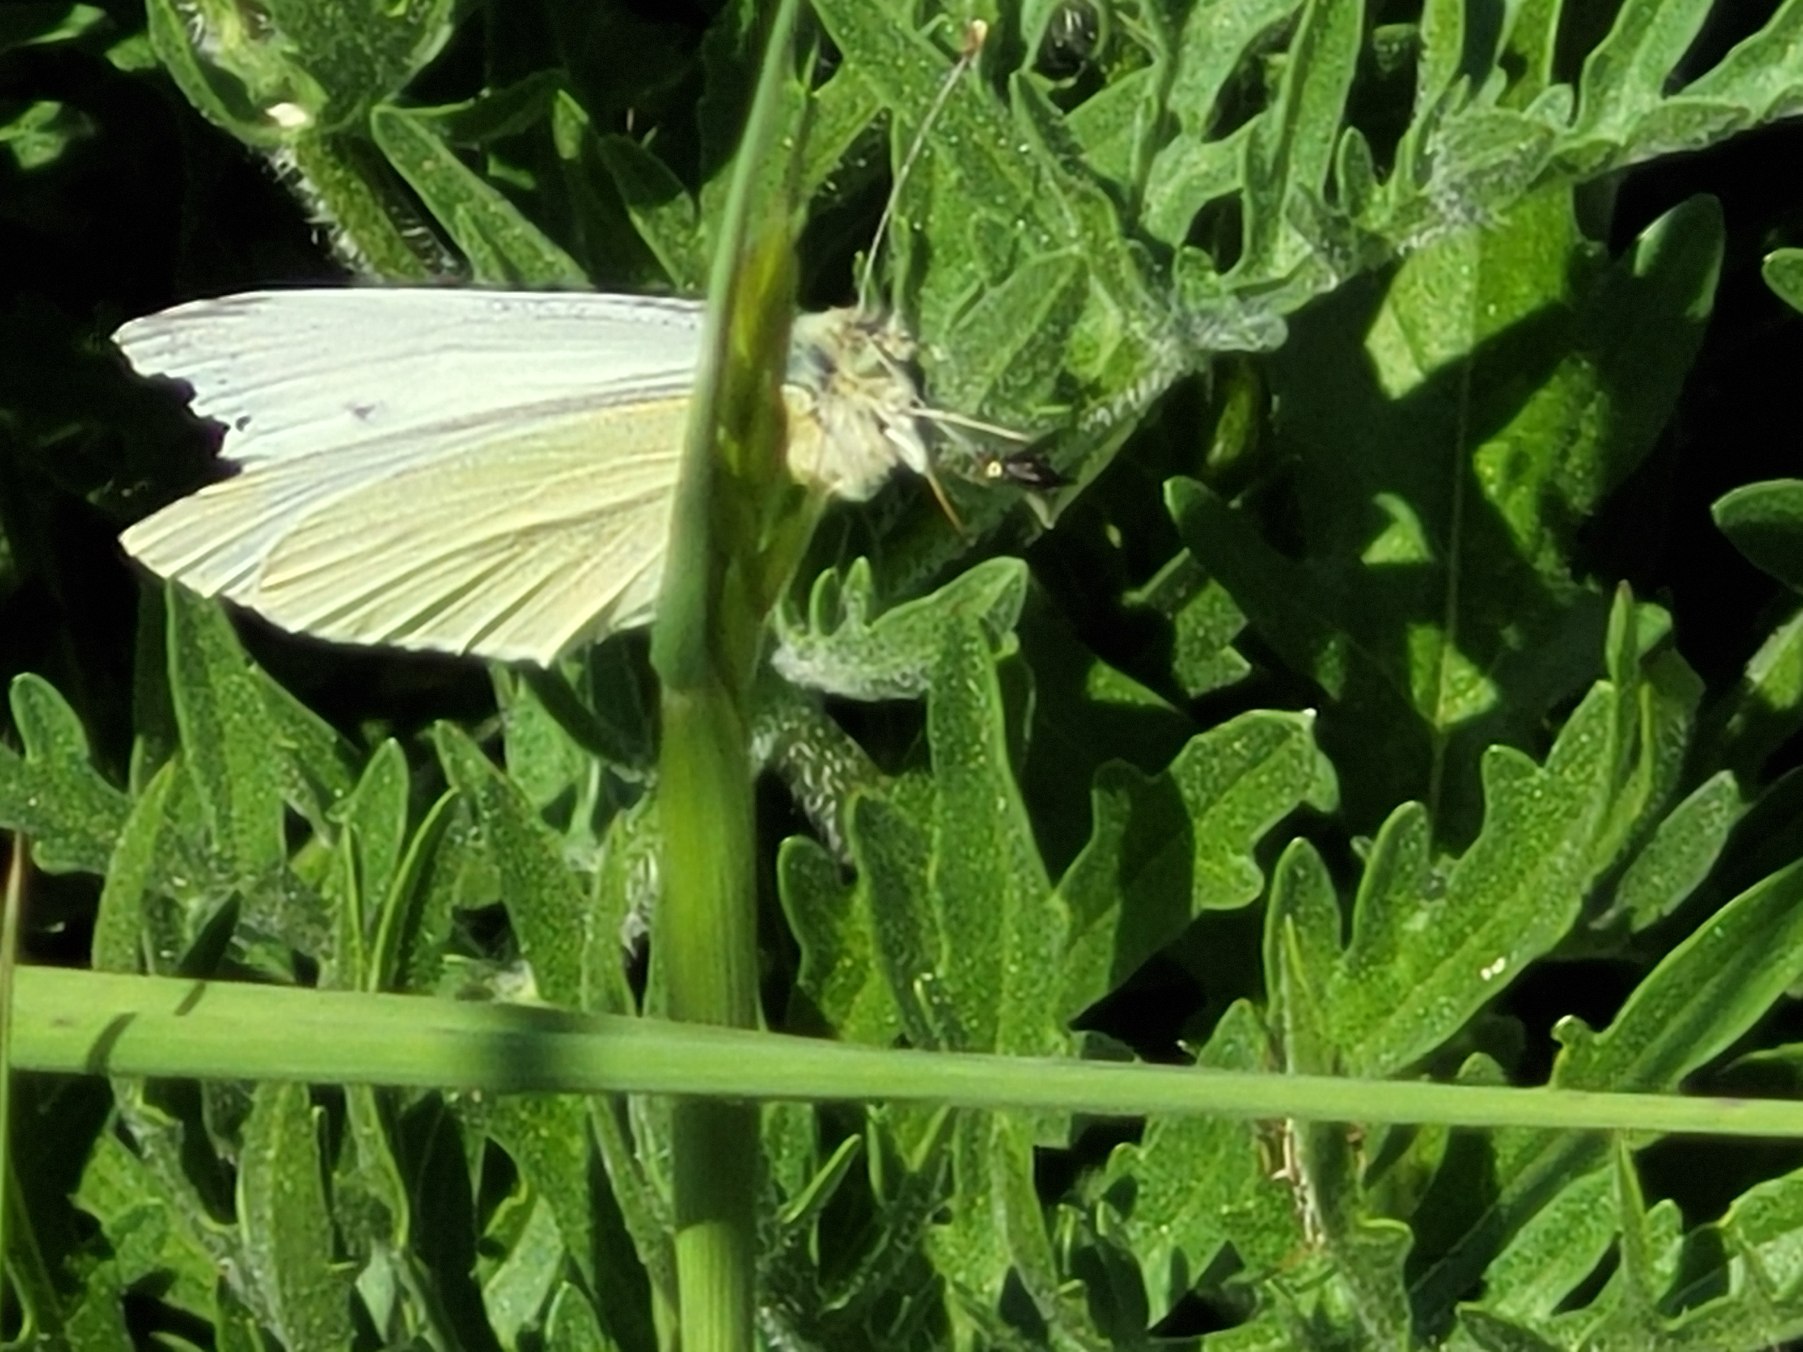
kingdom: Animalia
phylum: Arthropoda
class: Insecta
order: Lepidoptera
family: Pieridae
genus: Pieris
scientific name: Pieris rapae
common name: Lille kålsommerfugl
